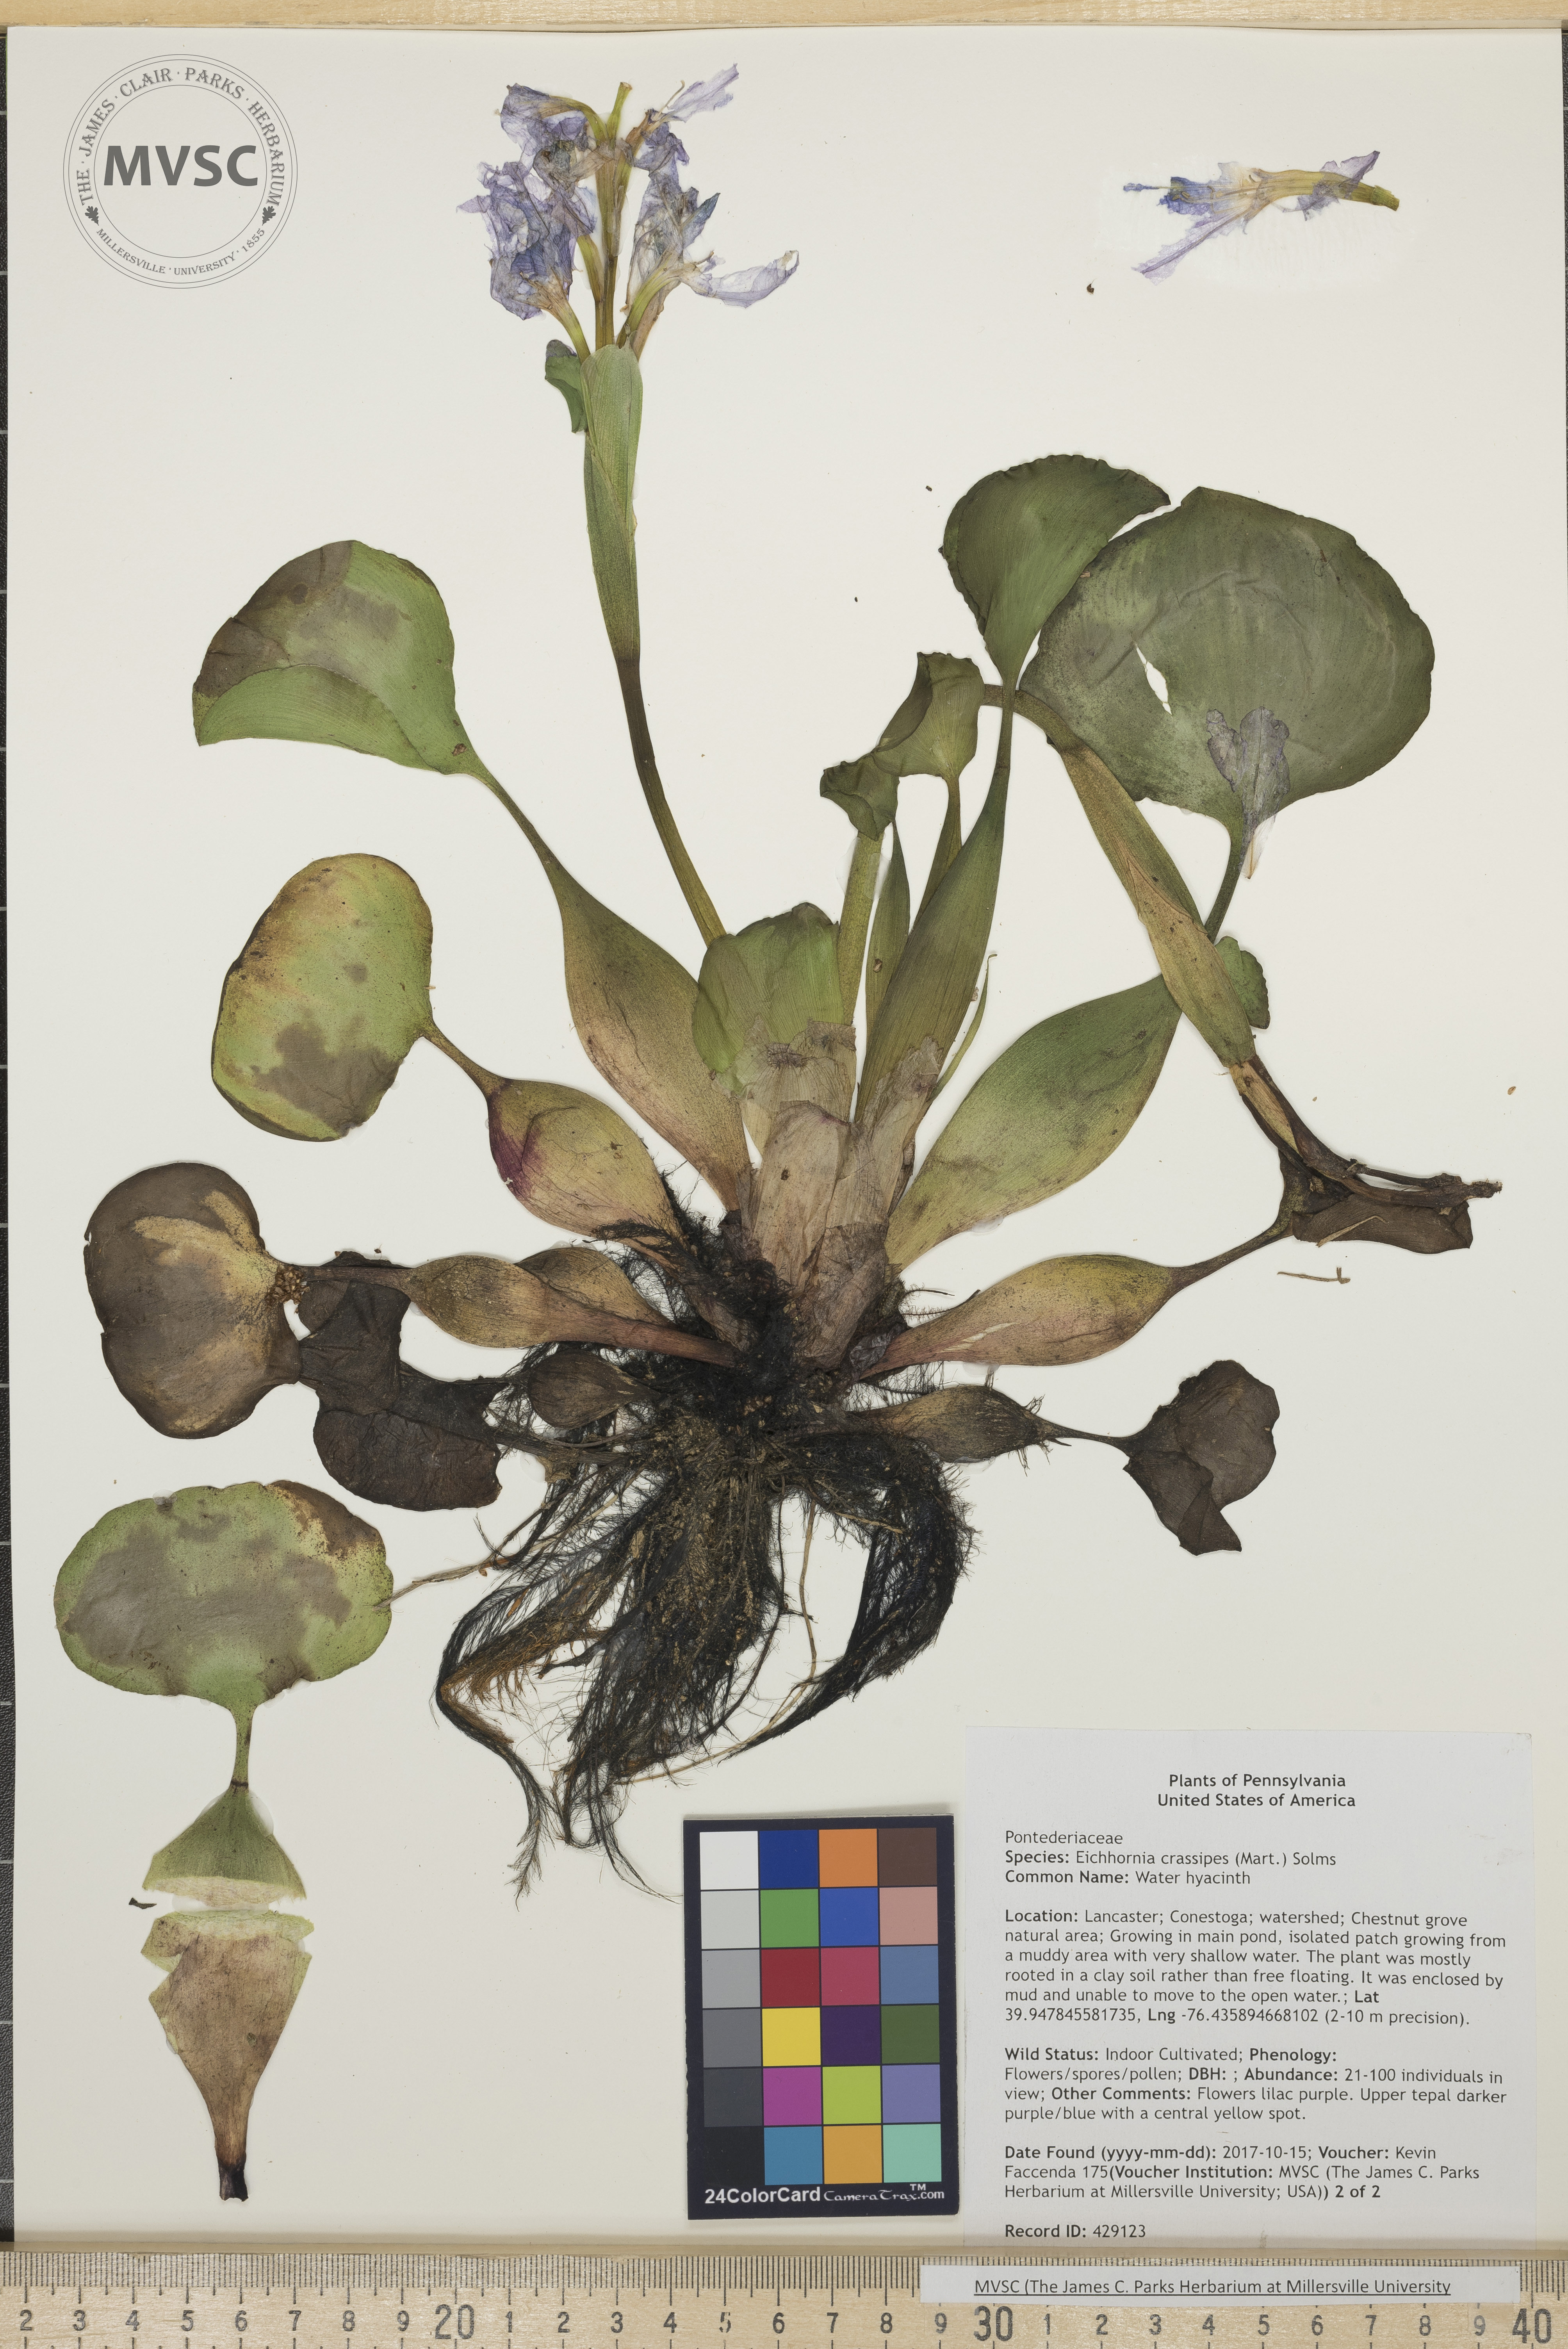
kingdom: Plantae
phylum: Tracheophyta
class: Liliopsida
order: Commelinales
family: Pontederiaceae
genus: Pontederia
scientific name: Pontederia crassipes
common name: Water hyacinth
